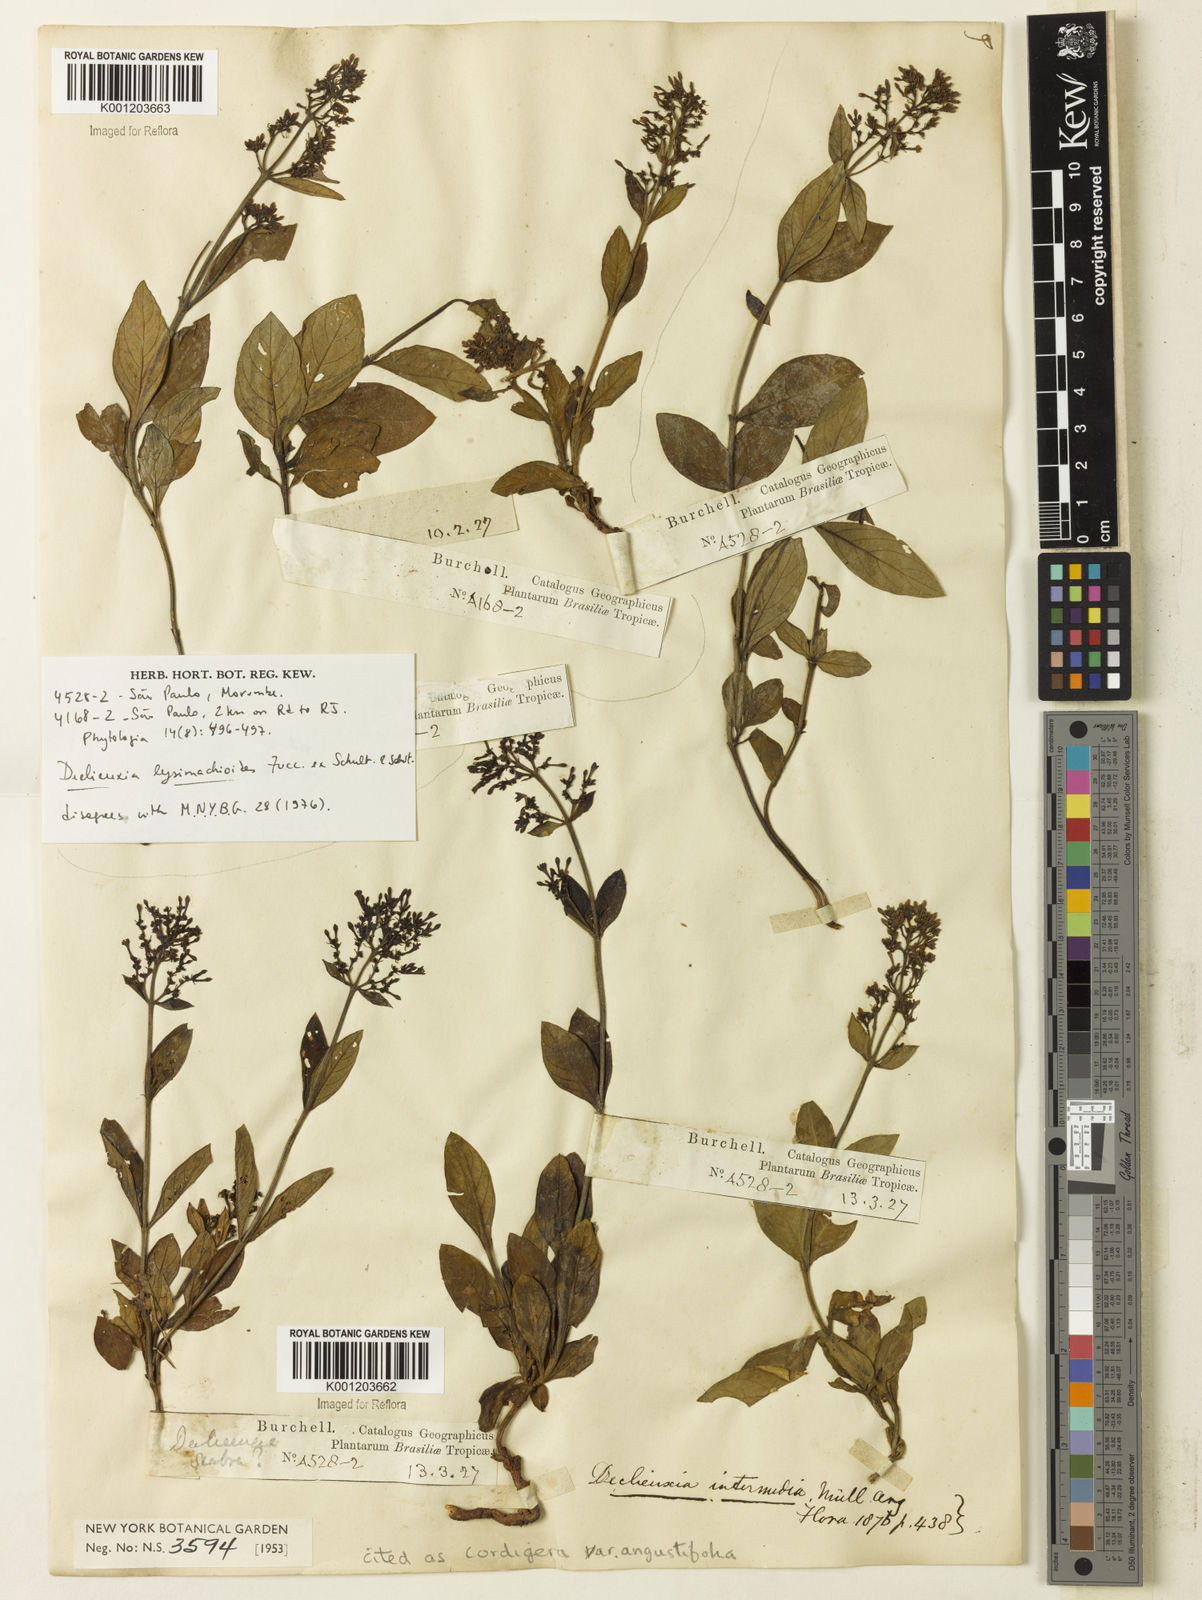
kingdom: Plantae
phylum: Tracheophyta
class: Magnoliopsida
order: Gentianales
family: Rubiaceae
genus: Declieuxia
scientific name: Declieuxia
